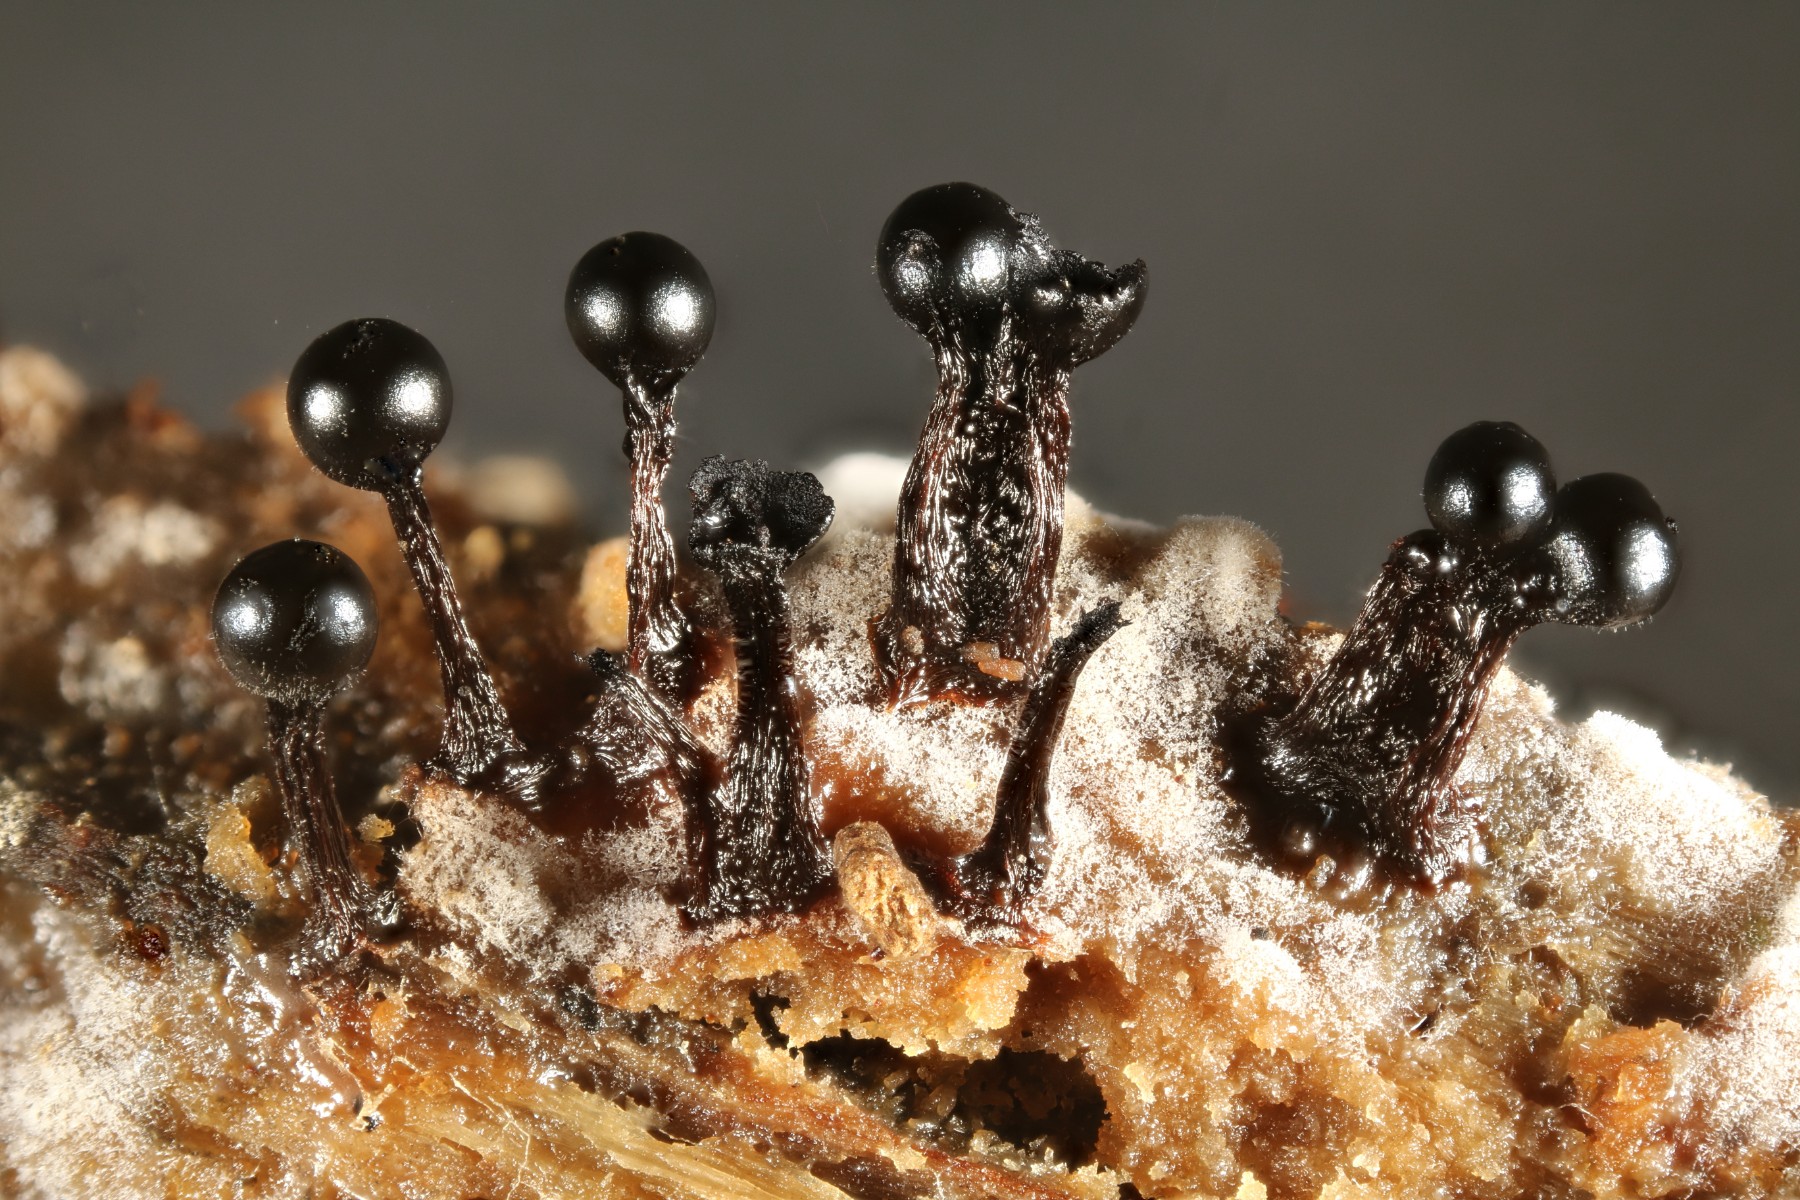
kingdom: Protozoa
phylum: Mycetozoa
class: Myxomycetes
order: Trichiales
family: Trichiaceae
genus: Metatrichia
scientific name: Metatrichia floriformis
